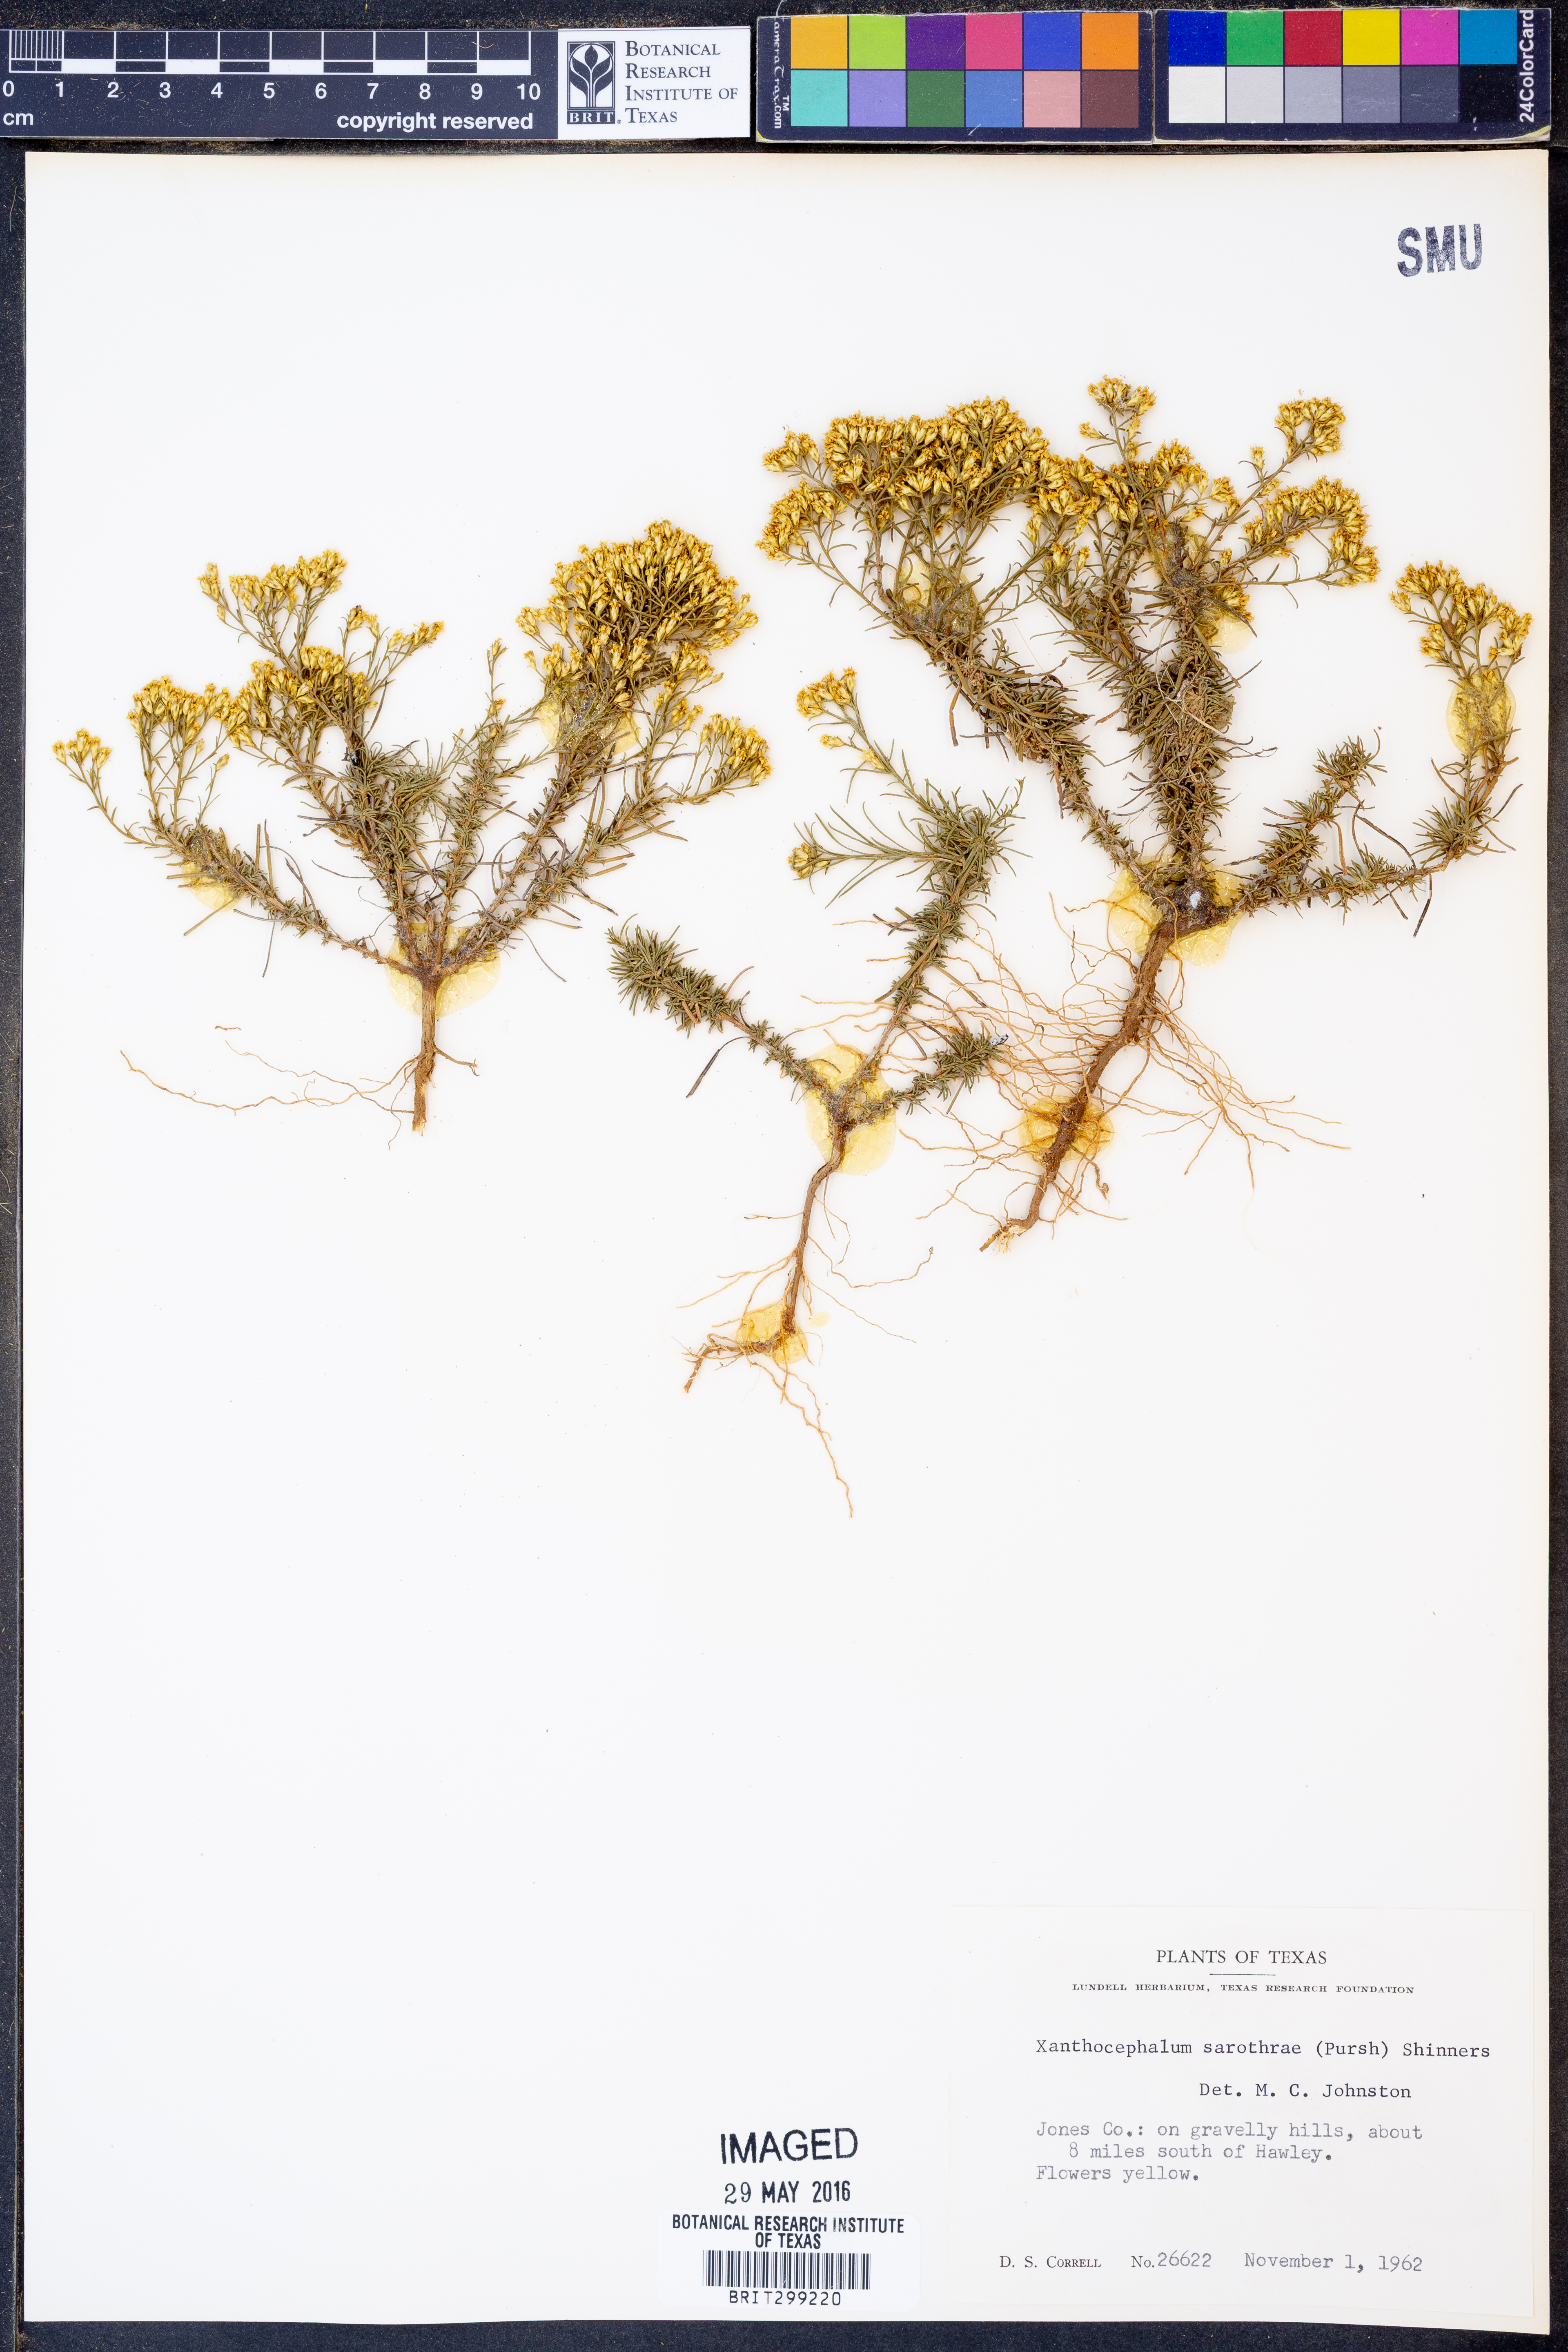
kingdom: Plantae
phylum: Tracheophyta
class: Magnoliopsida
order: Asterales
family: Asteraceae
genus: Gutierrezia
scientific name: Gutierrezia sarothrae
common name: Broom snakeweed
